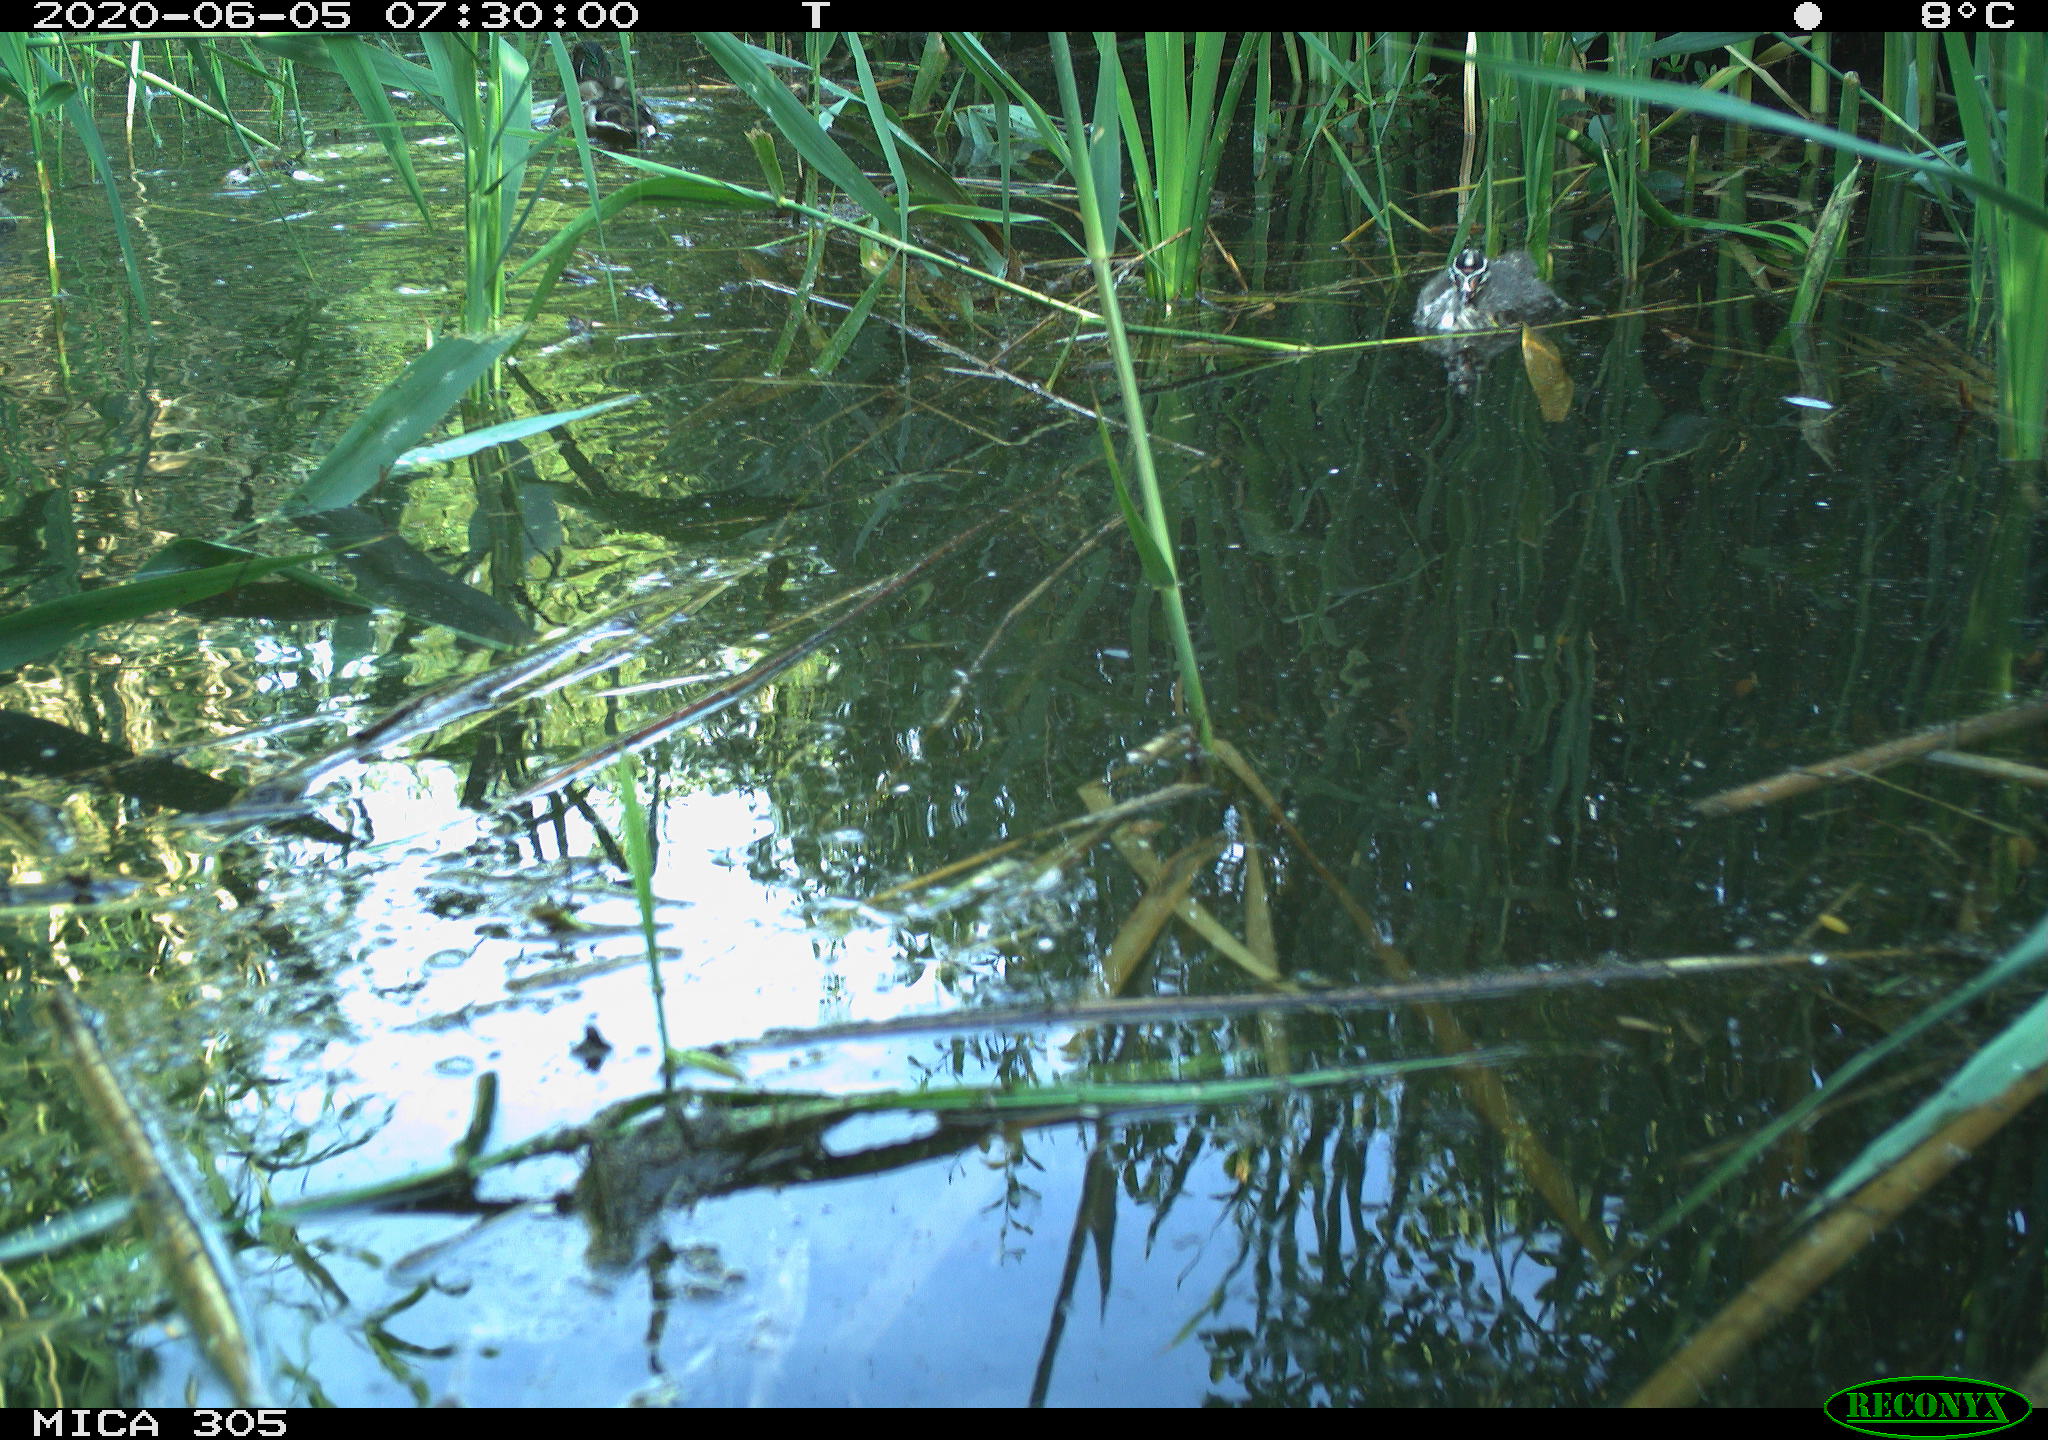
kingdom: Animalia
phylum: Chordata
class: Aves
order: Anseriformes
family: Anatidae
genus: Anas
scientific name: Anas platyrhynchos
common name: Mallard
